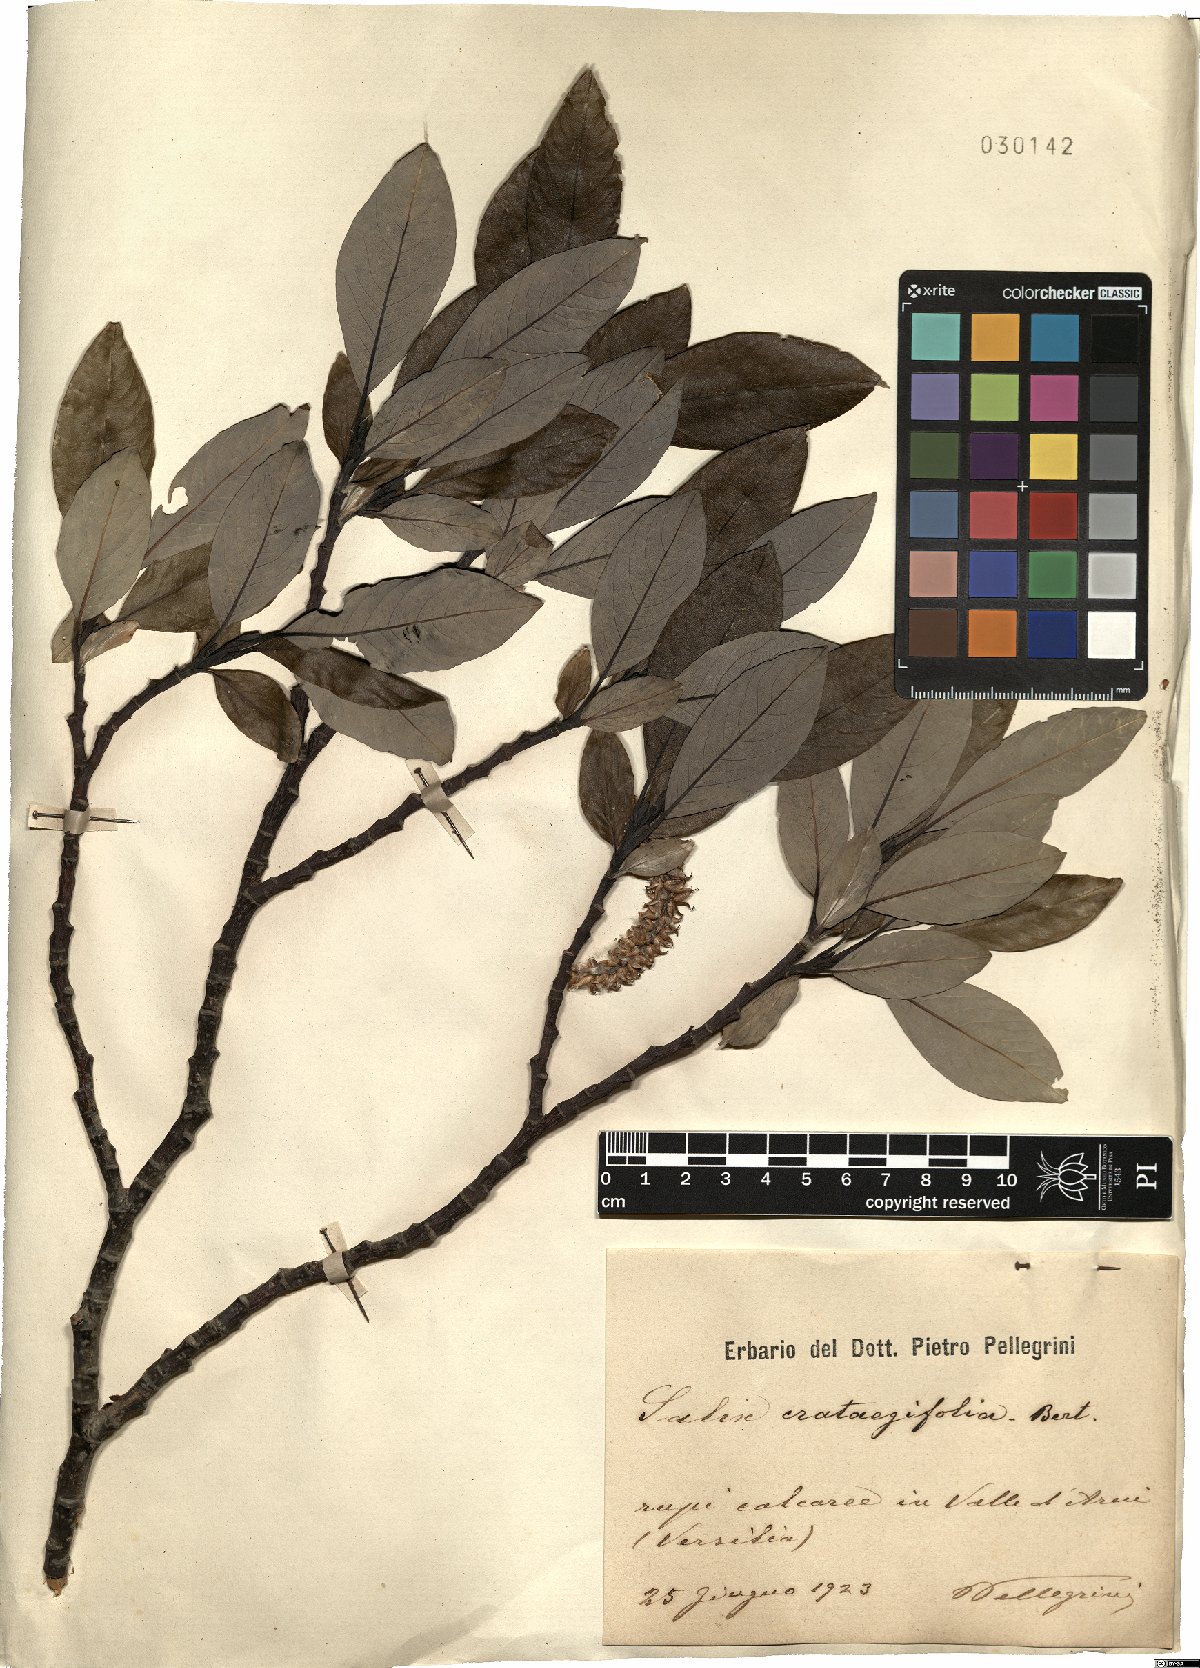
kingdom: Plantae
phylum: Tracheophyta
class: Magnoliopsida
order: Malpighiales
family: Salicaceae
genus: Salix
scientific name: Salix crataegifolia
